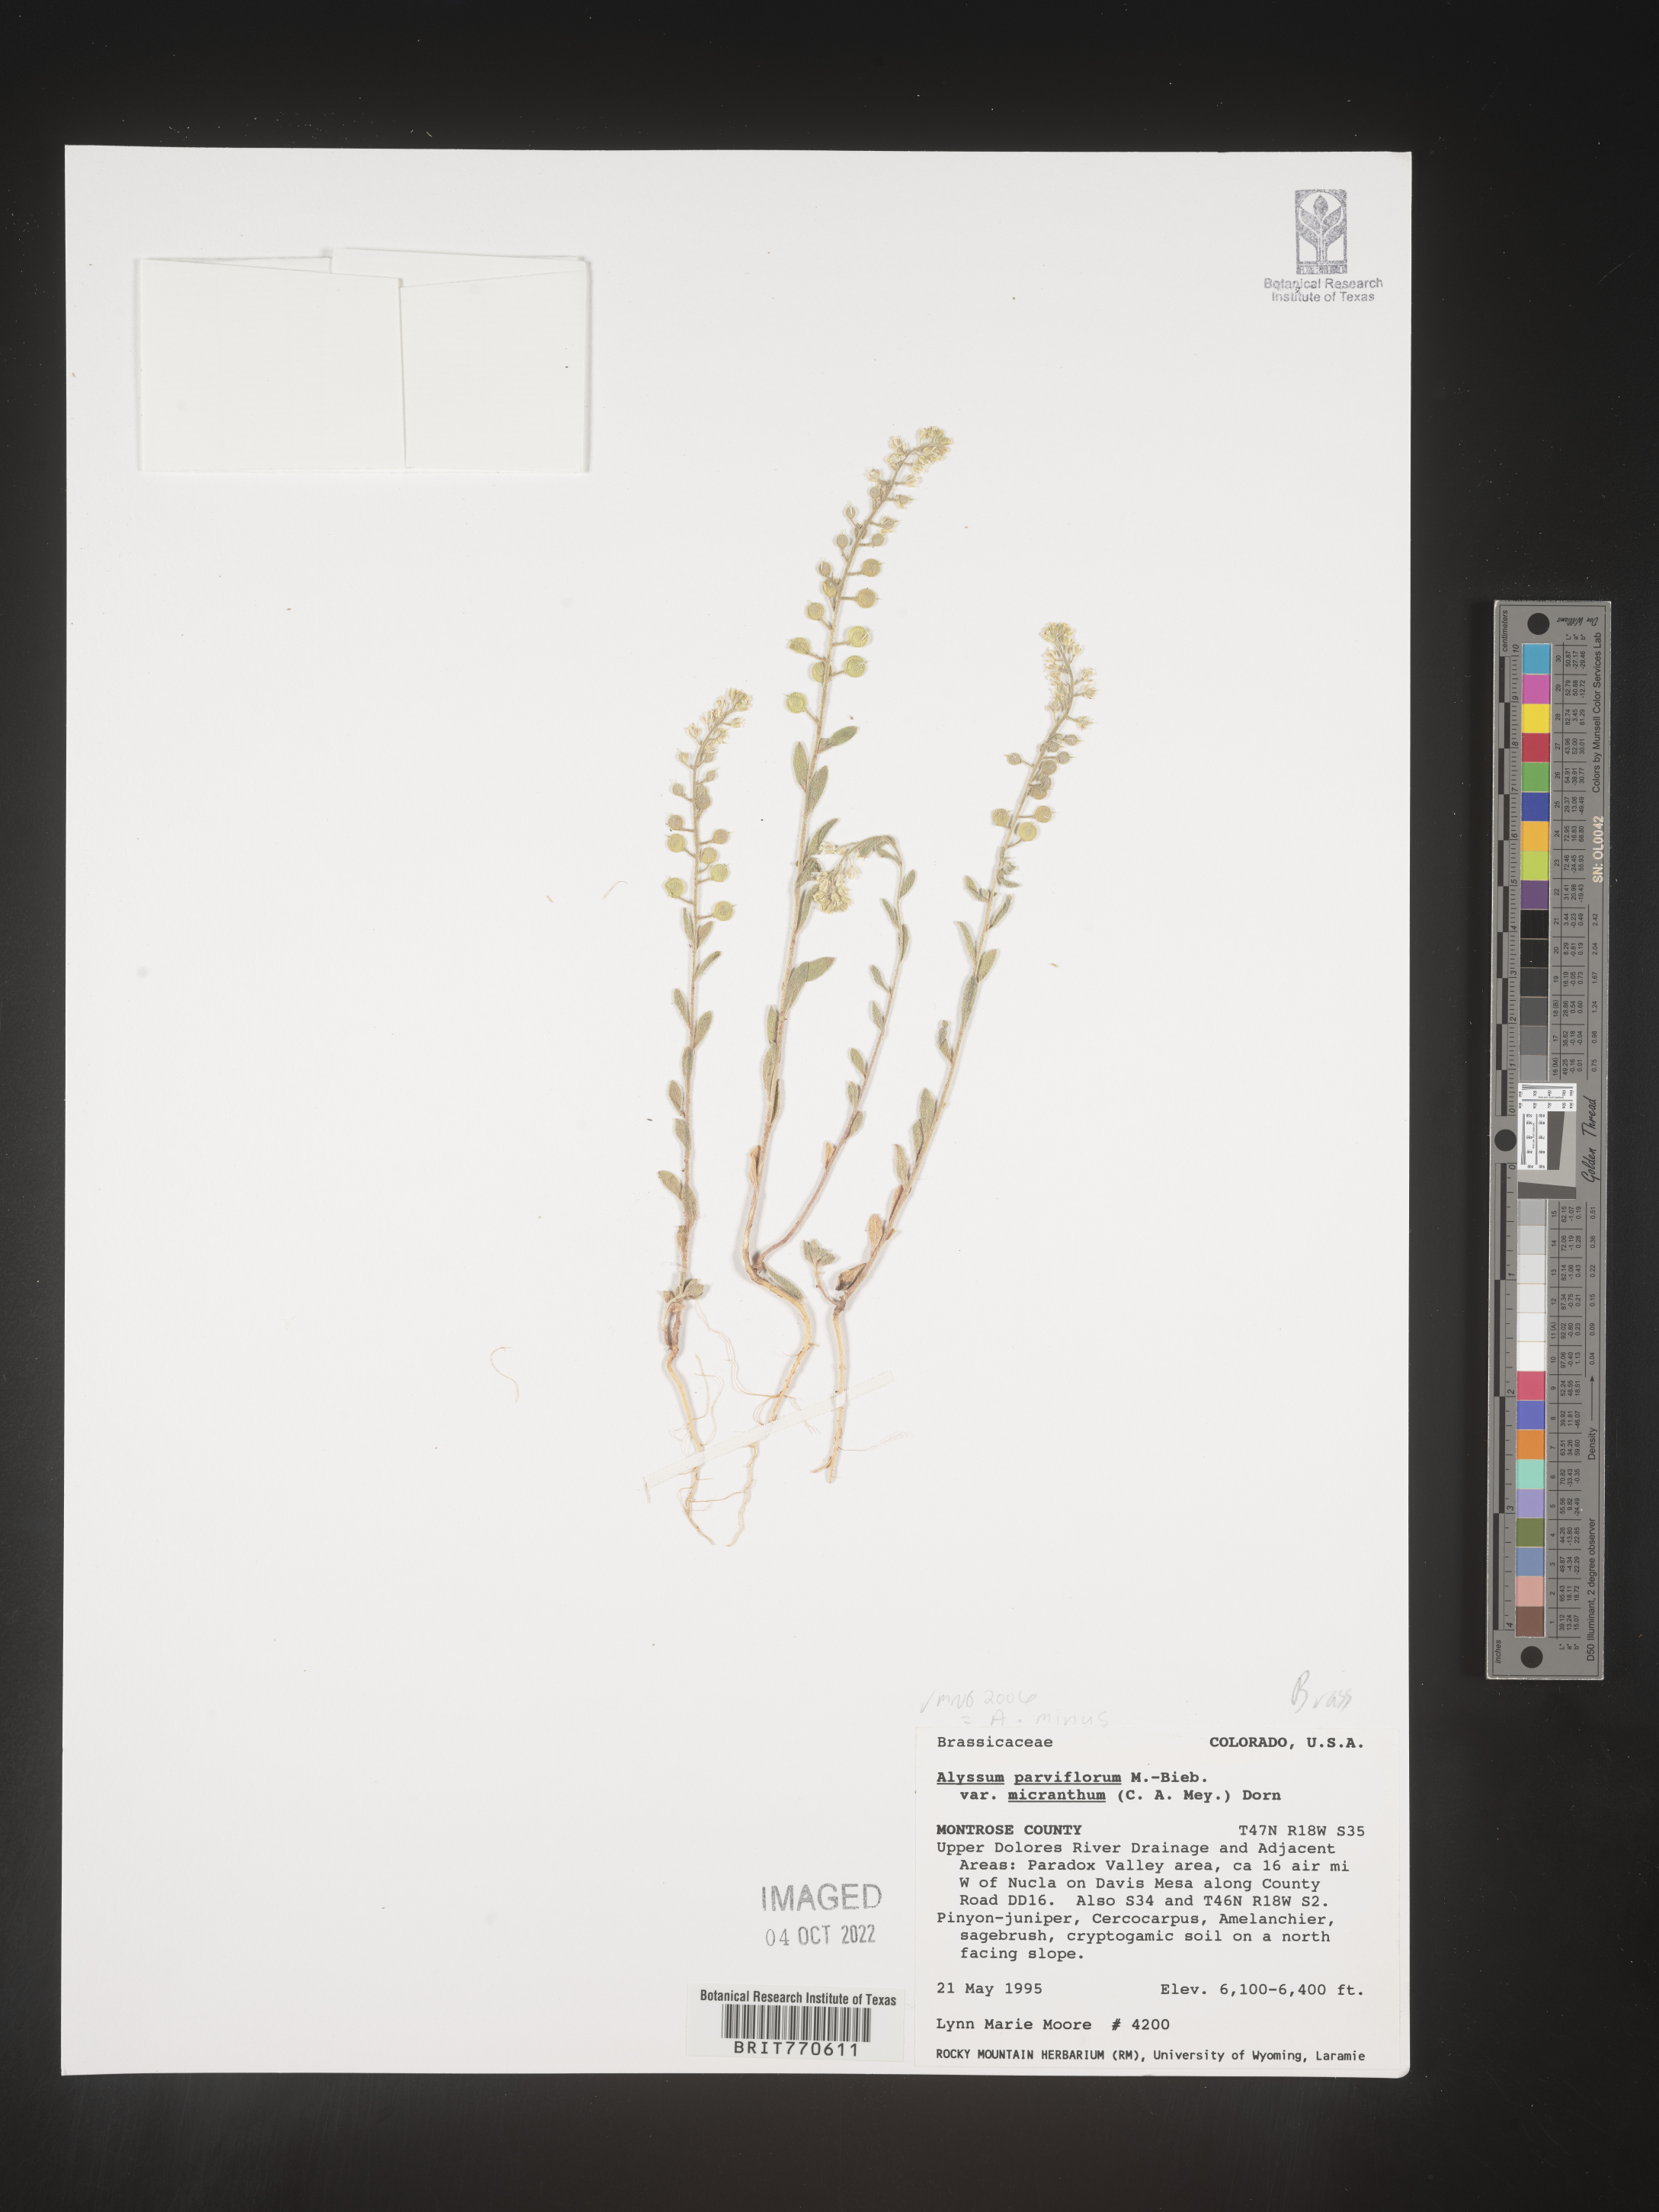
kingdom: Plantae
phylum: Tracheophyta
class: Magnoliopsida
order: Brassicales
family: Brassicaceae
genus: Alyssum
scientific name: Alyssum
